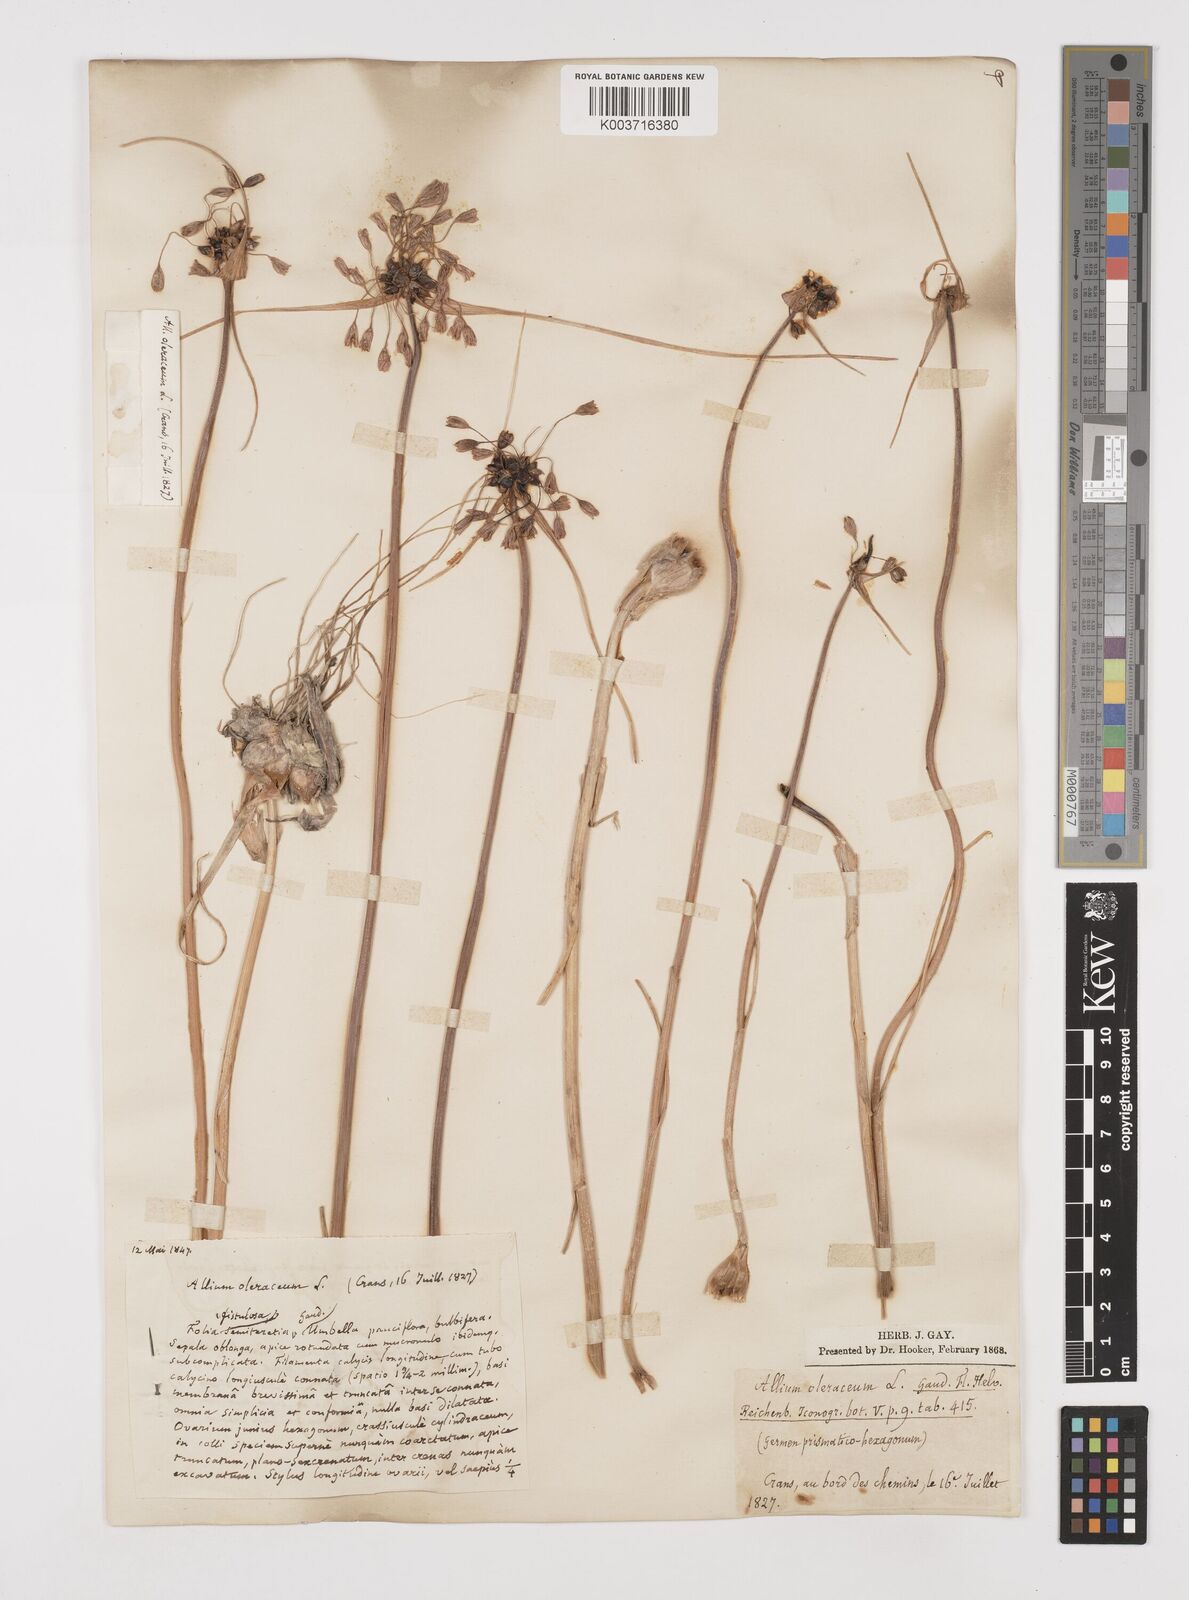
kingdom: Plantae
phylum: Tracheophyta
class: Liliopsida
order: Asparagales
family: Amaryllidaceae
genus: Allium
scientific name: Allium oleraceum
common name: Field garlic
